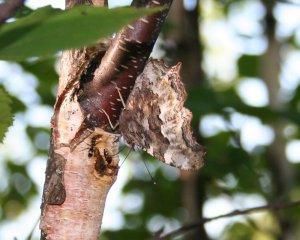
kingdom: Animalia
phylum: Arthropoda
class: Insecta
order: Lepidoptera
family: Nymphalidae
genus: Polygonia
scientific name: Polygonia vaualbum
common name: Compton Tortoiseshell
